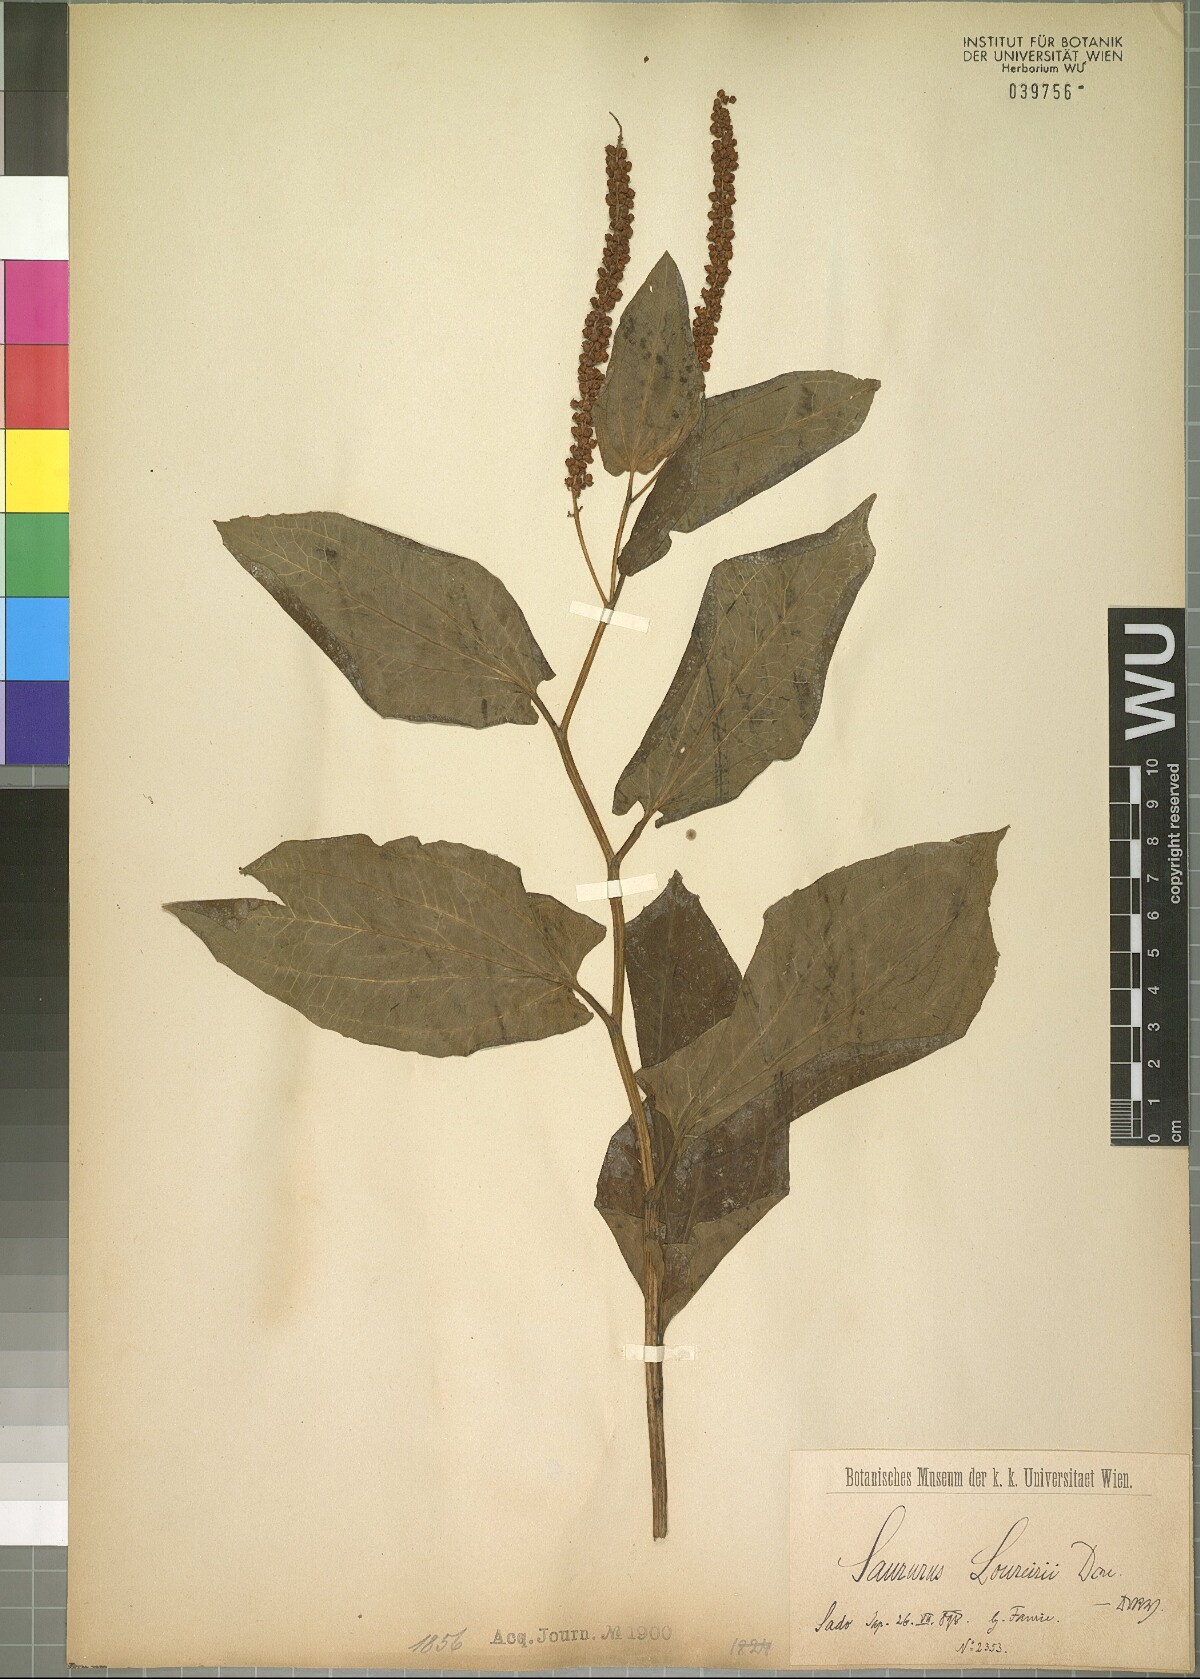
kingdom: Plantae
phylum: Tracheophyta
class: Magnoliopsida
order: Piperales
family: Saururaceae
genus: Saururus
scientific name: Saururus chinensis
